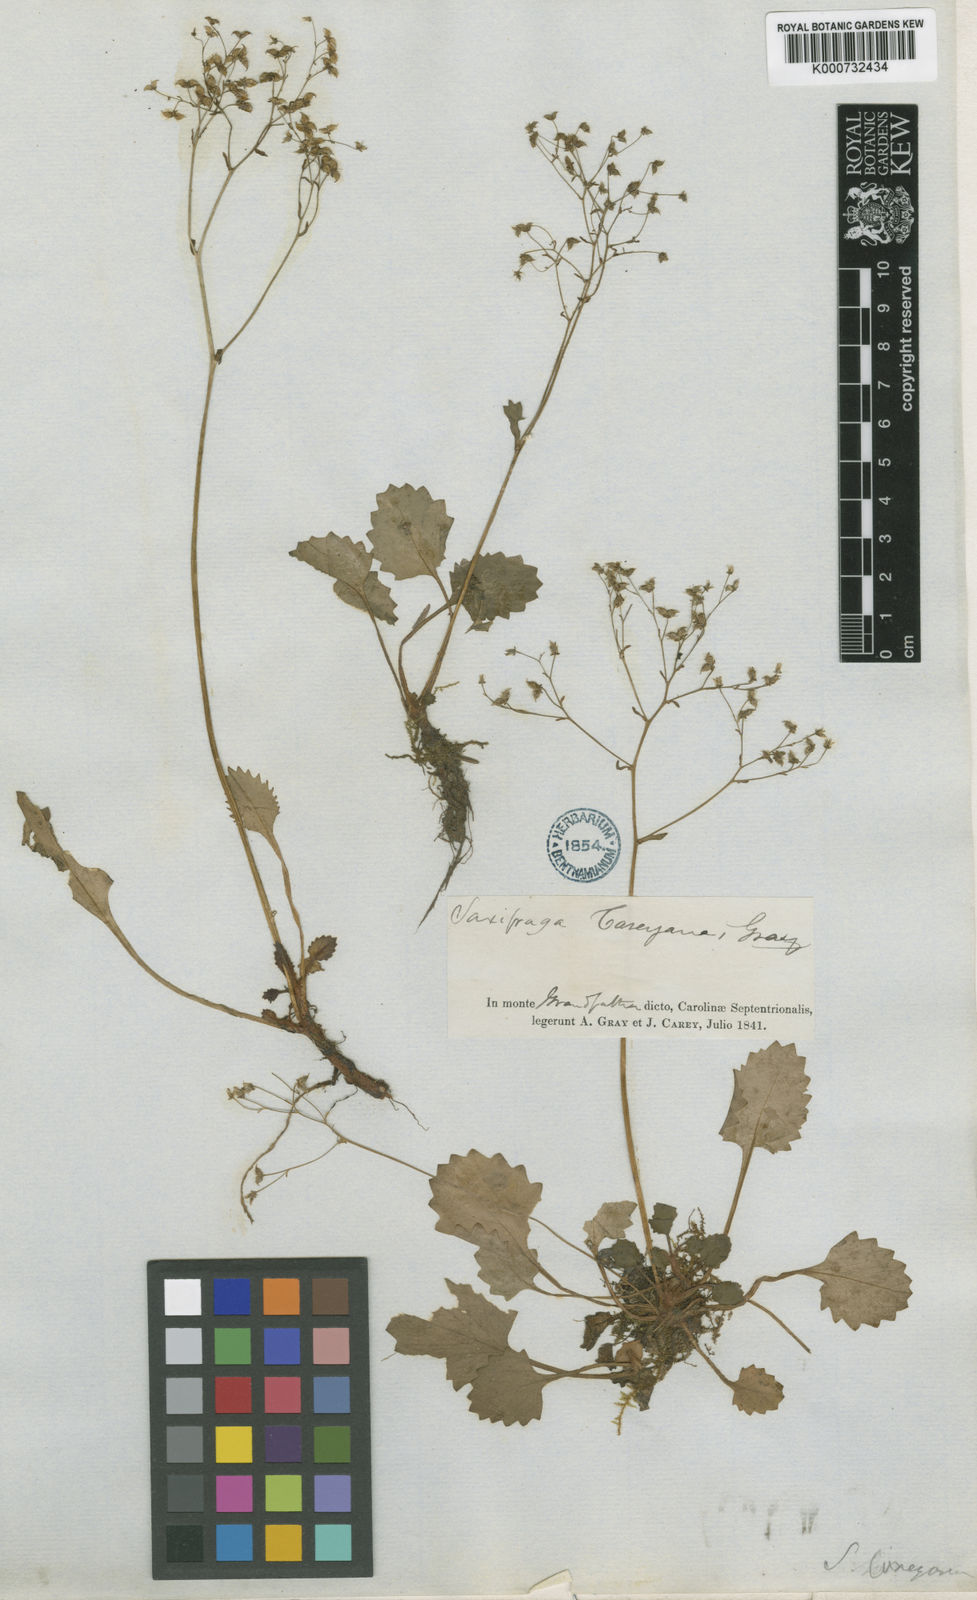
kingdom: Plantae
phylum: Tracheophyta
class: Magnoliopsida
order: Saxifragales
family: Saxifragaceae
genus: Saxifraga
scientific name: Saxifraga
